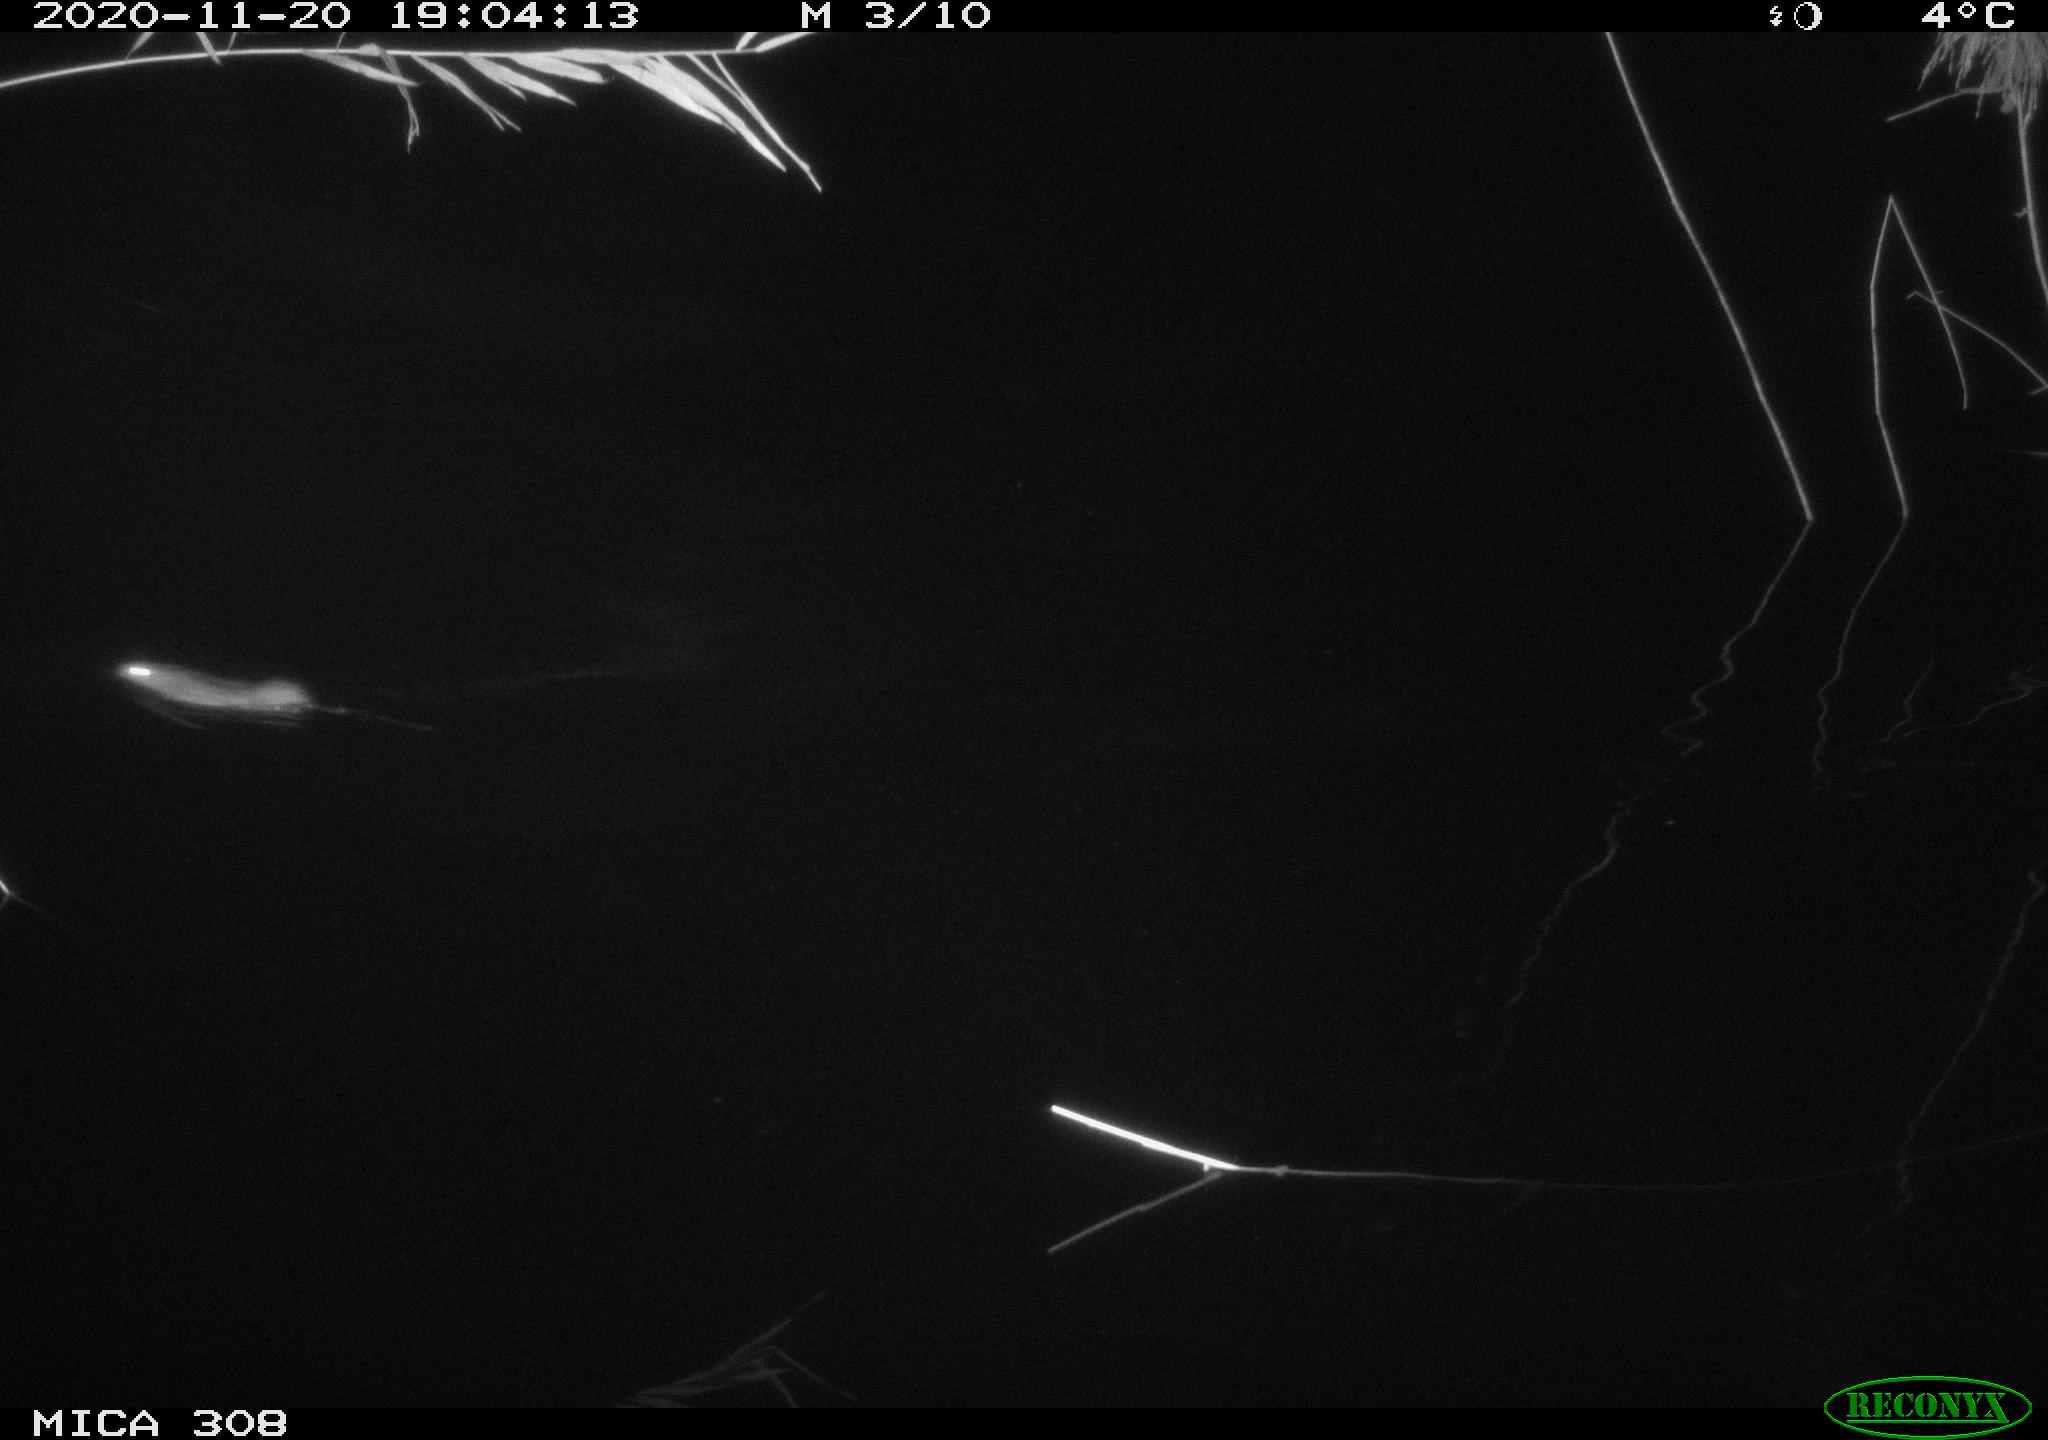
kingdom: Animalia
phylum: Chordata
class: Mammalia
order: Rodentia
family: Muridae
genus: Rattus
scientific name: Rattus norvegicus
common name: Brown rat
